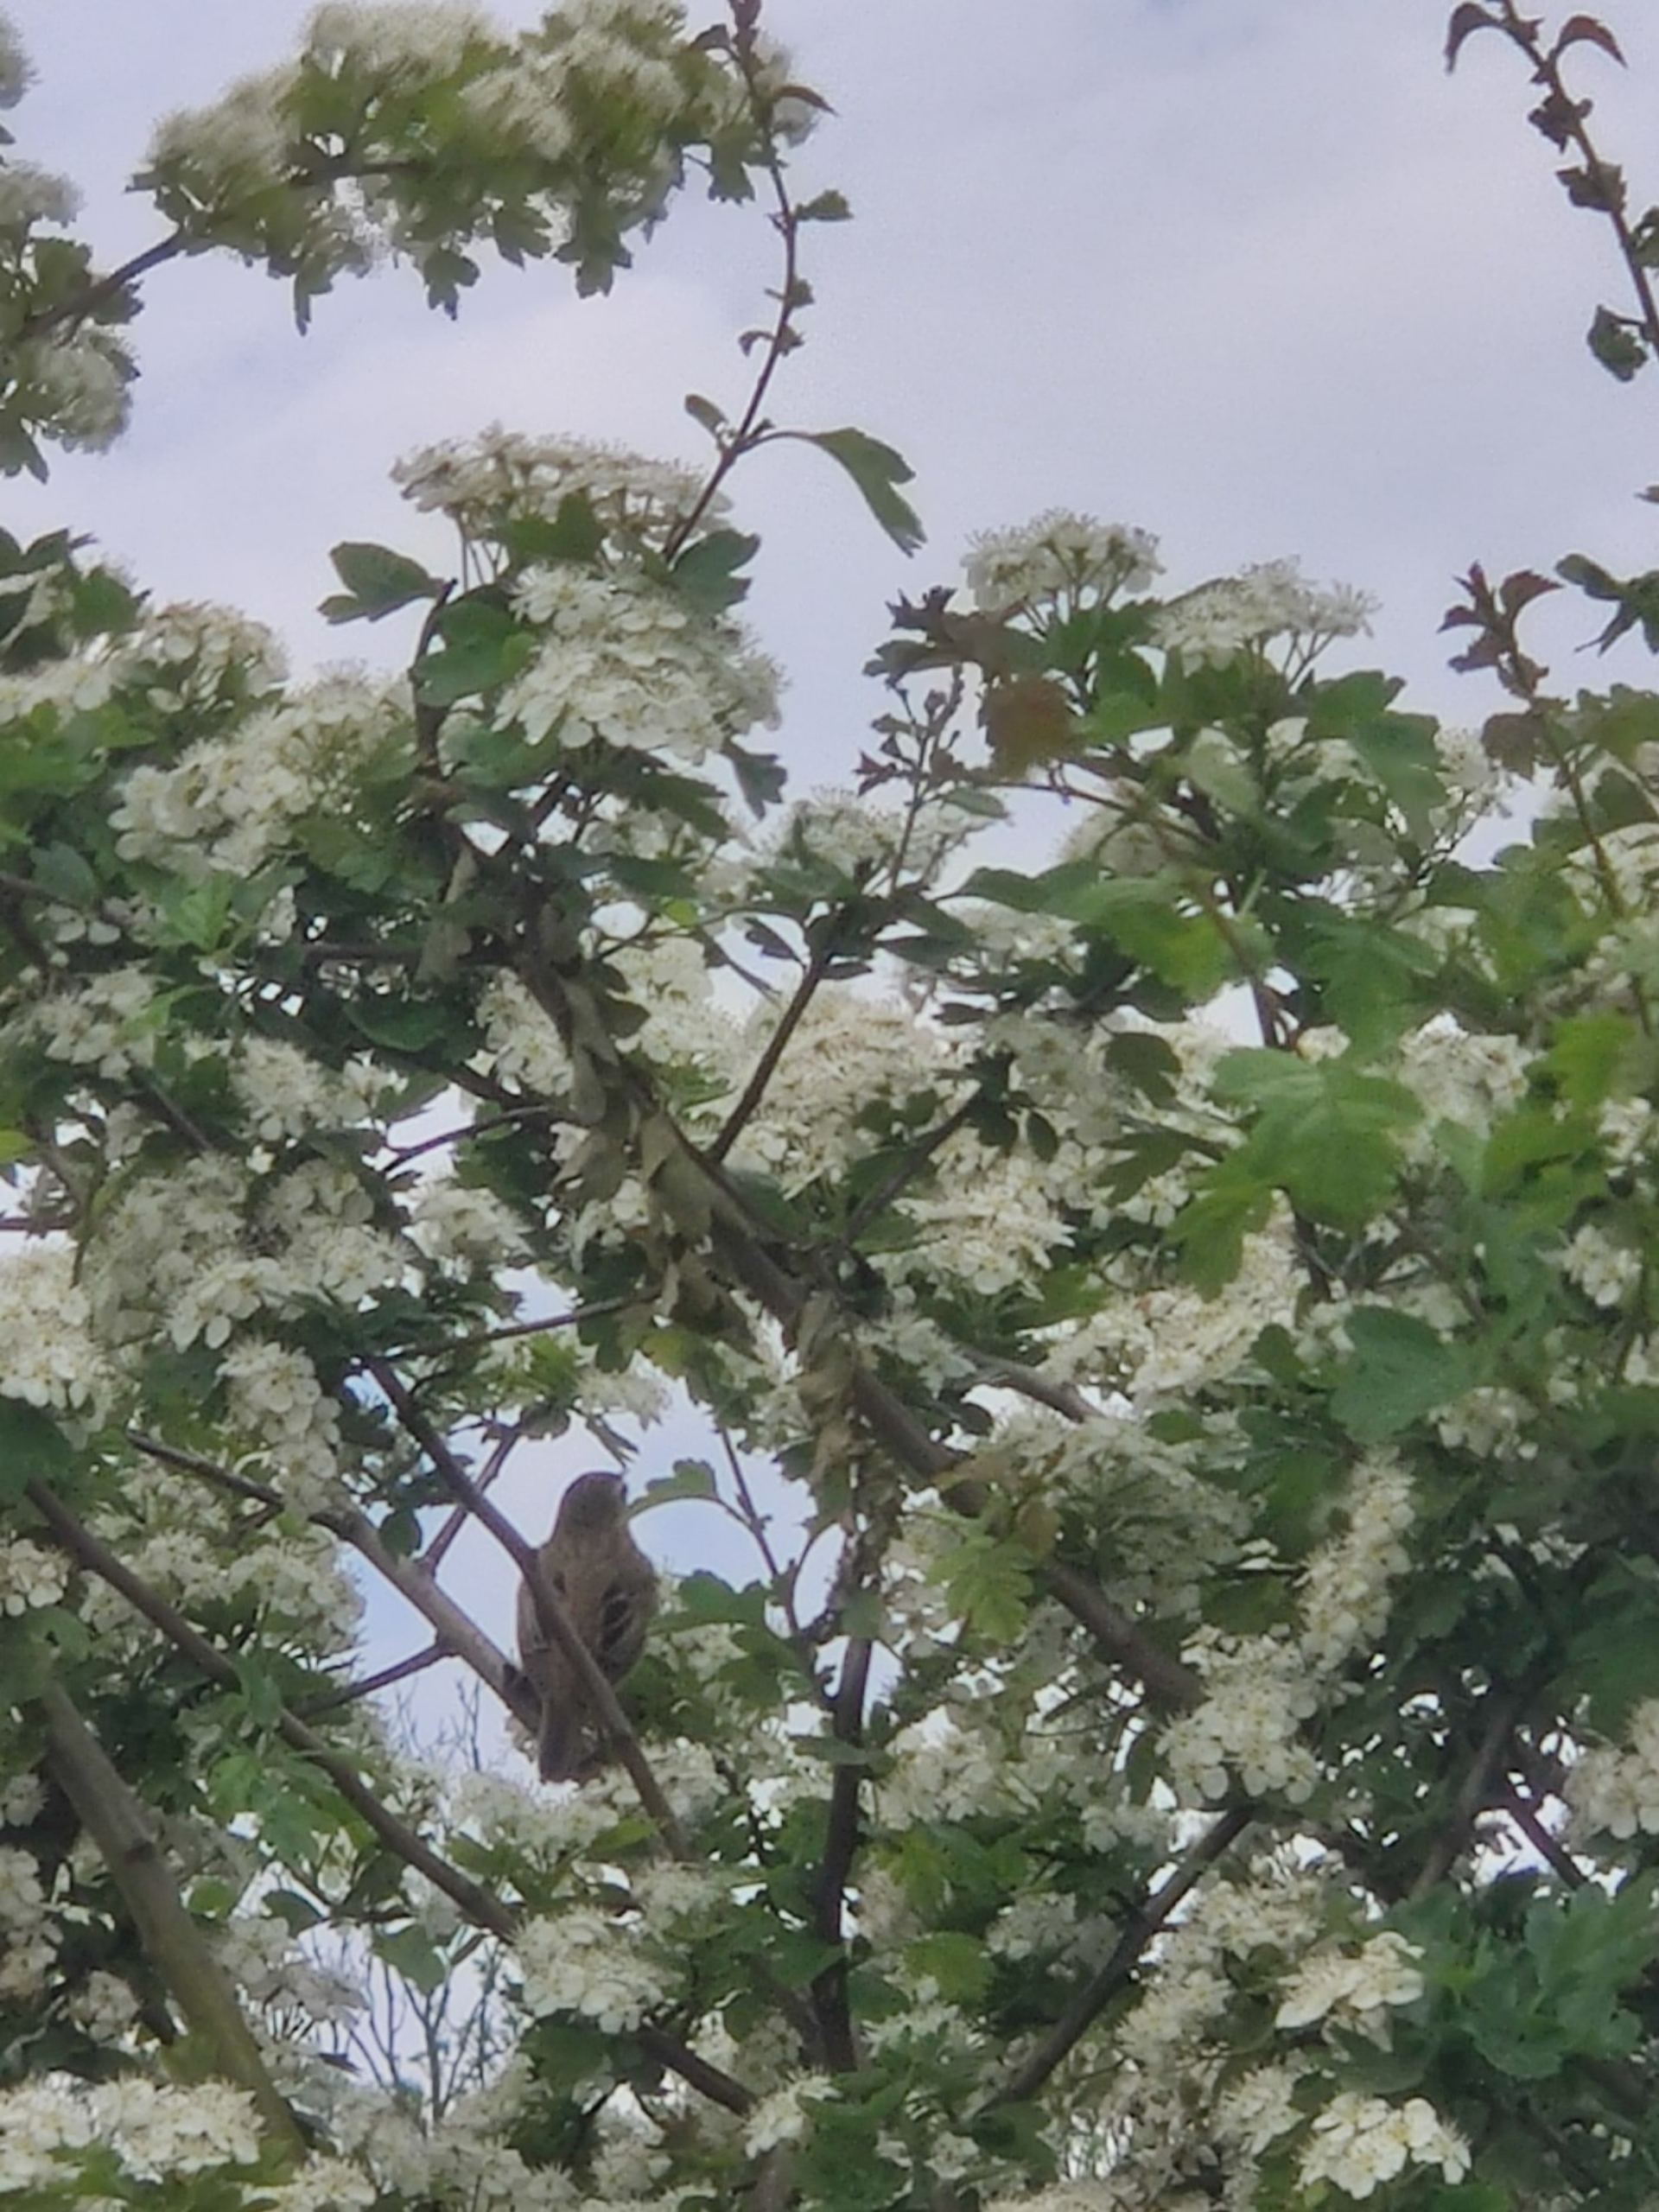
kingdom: Animalia
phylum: Chordata
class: Aves
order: Passeriformes
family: Acrocephalidae
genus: Acrocephalus
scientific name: Acrocephalus schoenobaenus
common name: Sivsanger
